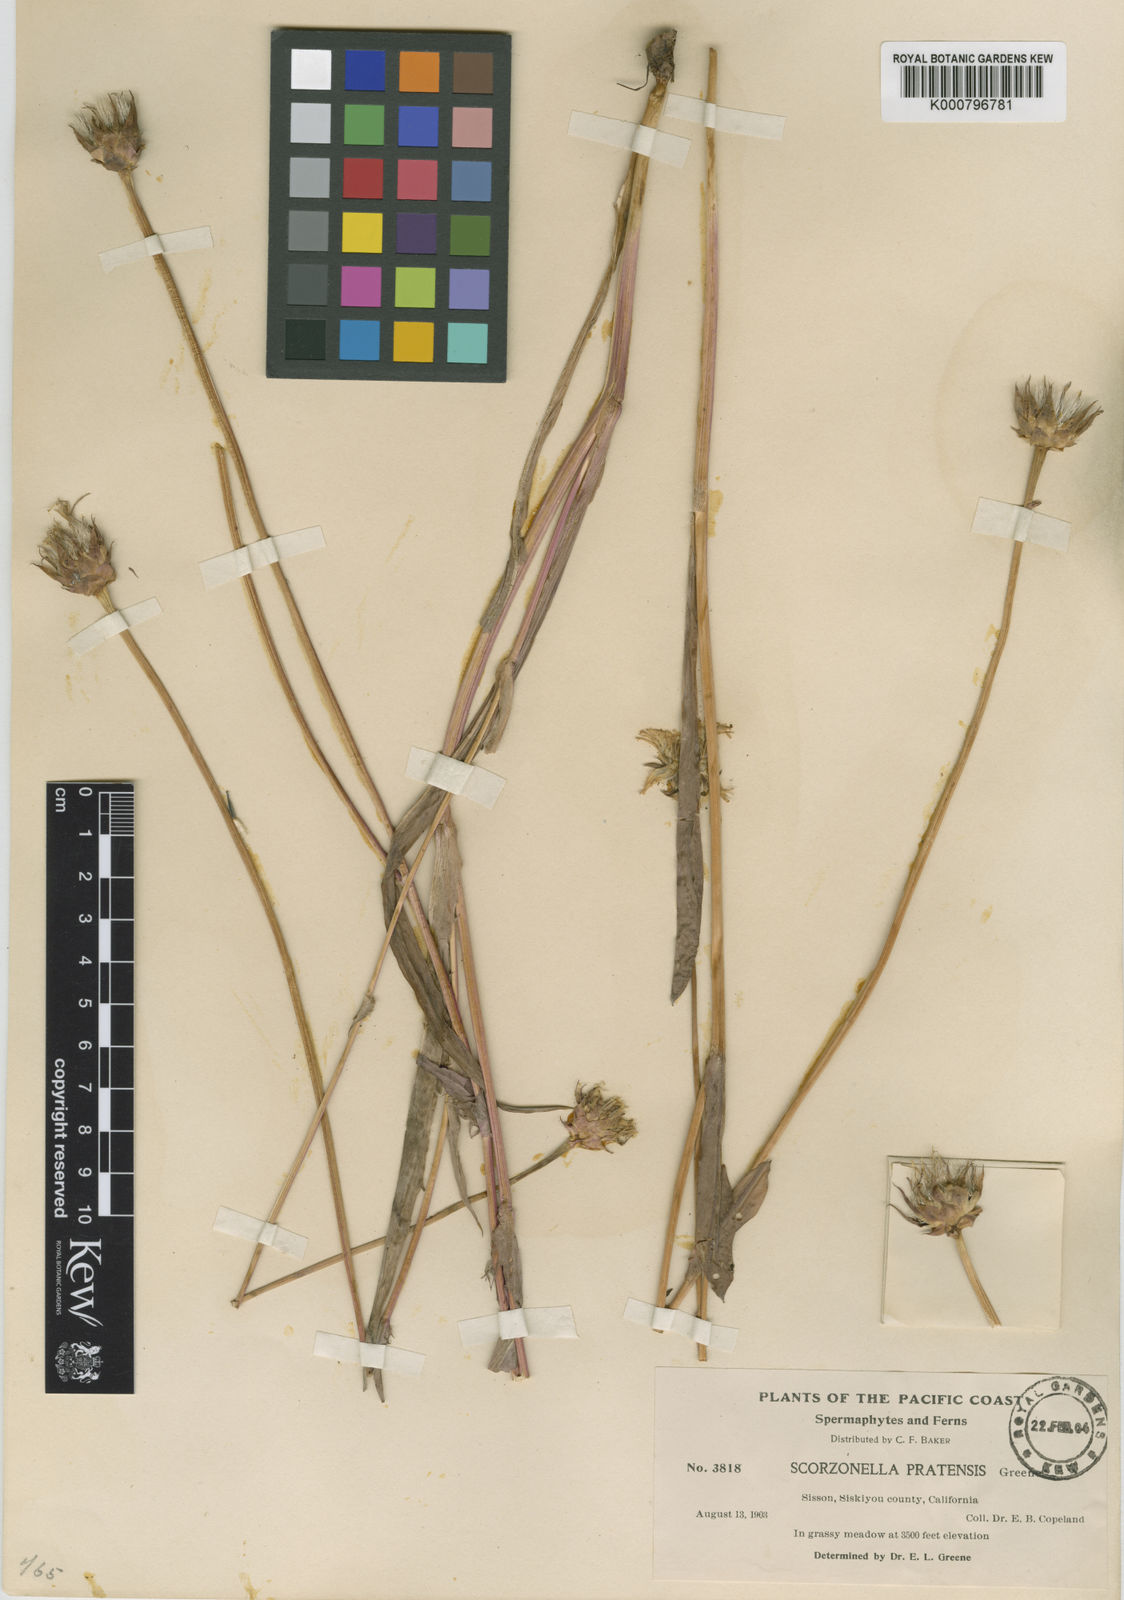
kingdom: Plantae
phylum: Tracheophyta
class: Magnoliopsida
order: Asterales
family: Asteraceae
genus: Microseris
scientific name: Microseris laciniata
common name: Cut-leaf microseris
